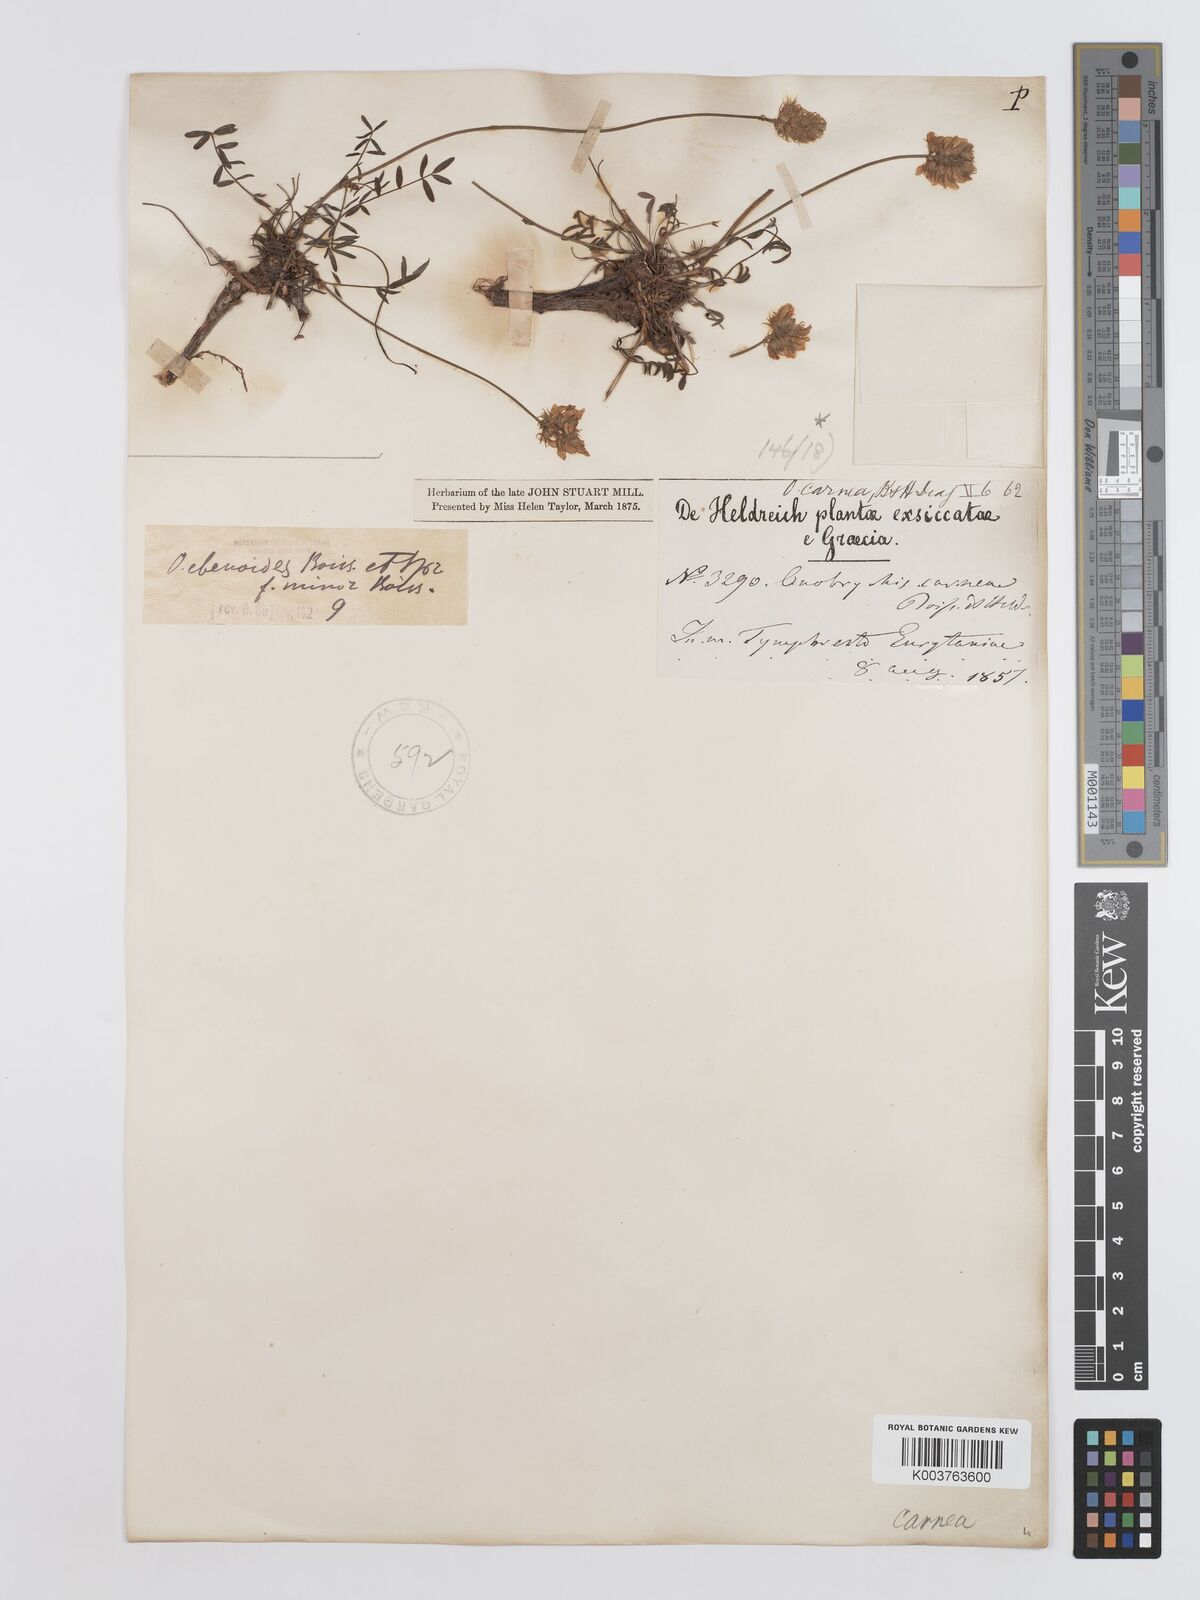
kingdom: Plantae
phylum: Tracheophyta
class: Magnoliopsida
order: Fabales
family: Fabaceae
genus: Onobrychis
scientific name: Onobrychis ebenoides
